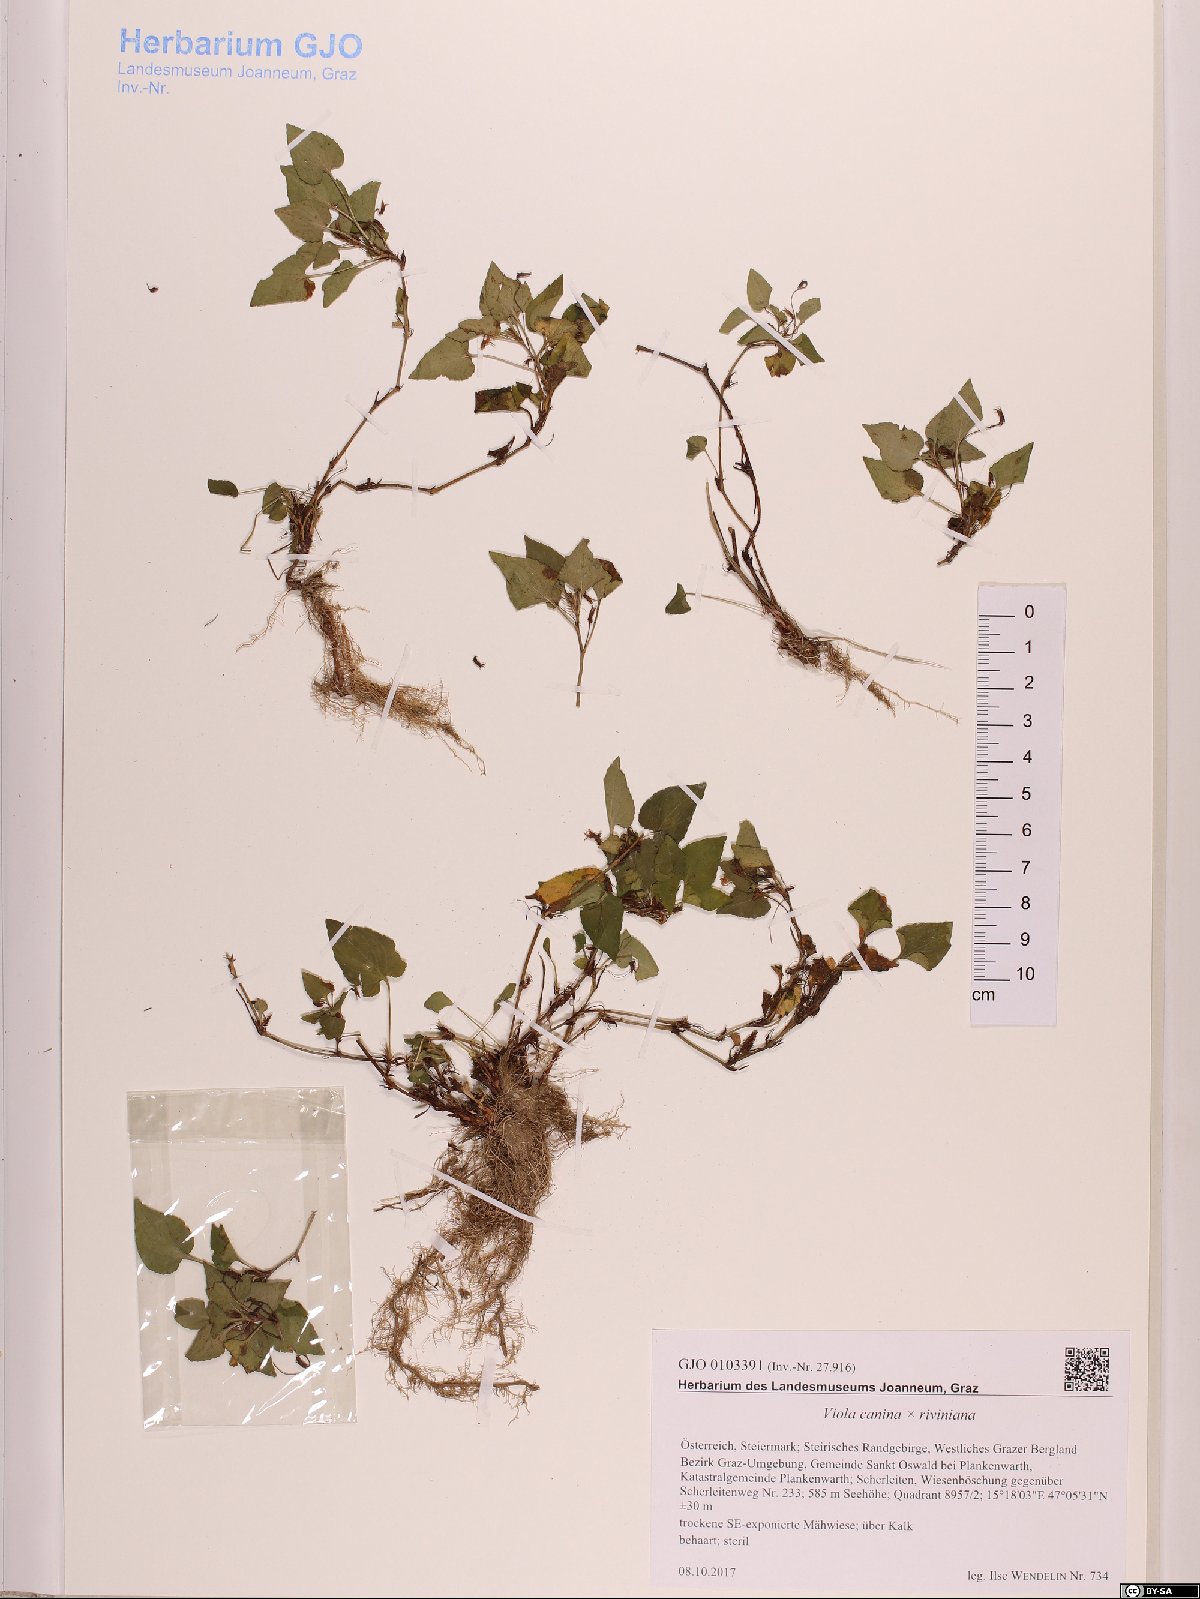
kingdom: Plantae
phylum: Tracheophyta
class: Magnoliopsida
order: Malpighiales
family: Violaceae
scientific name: Violaceae
